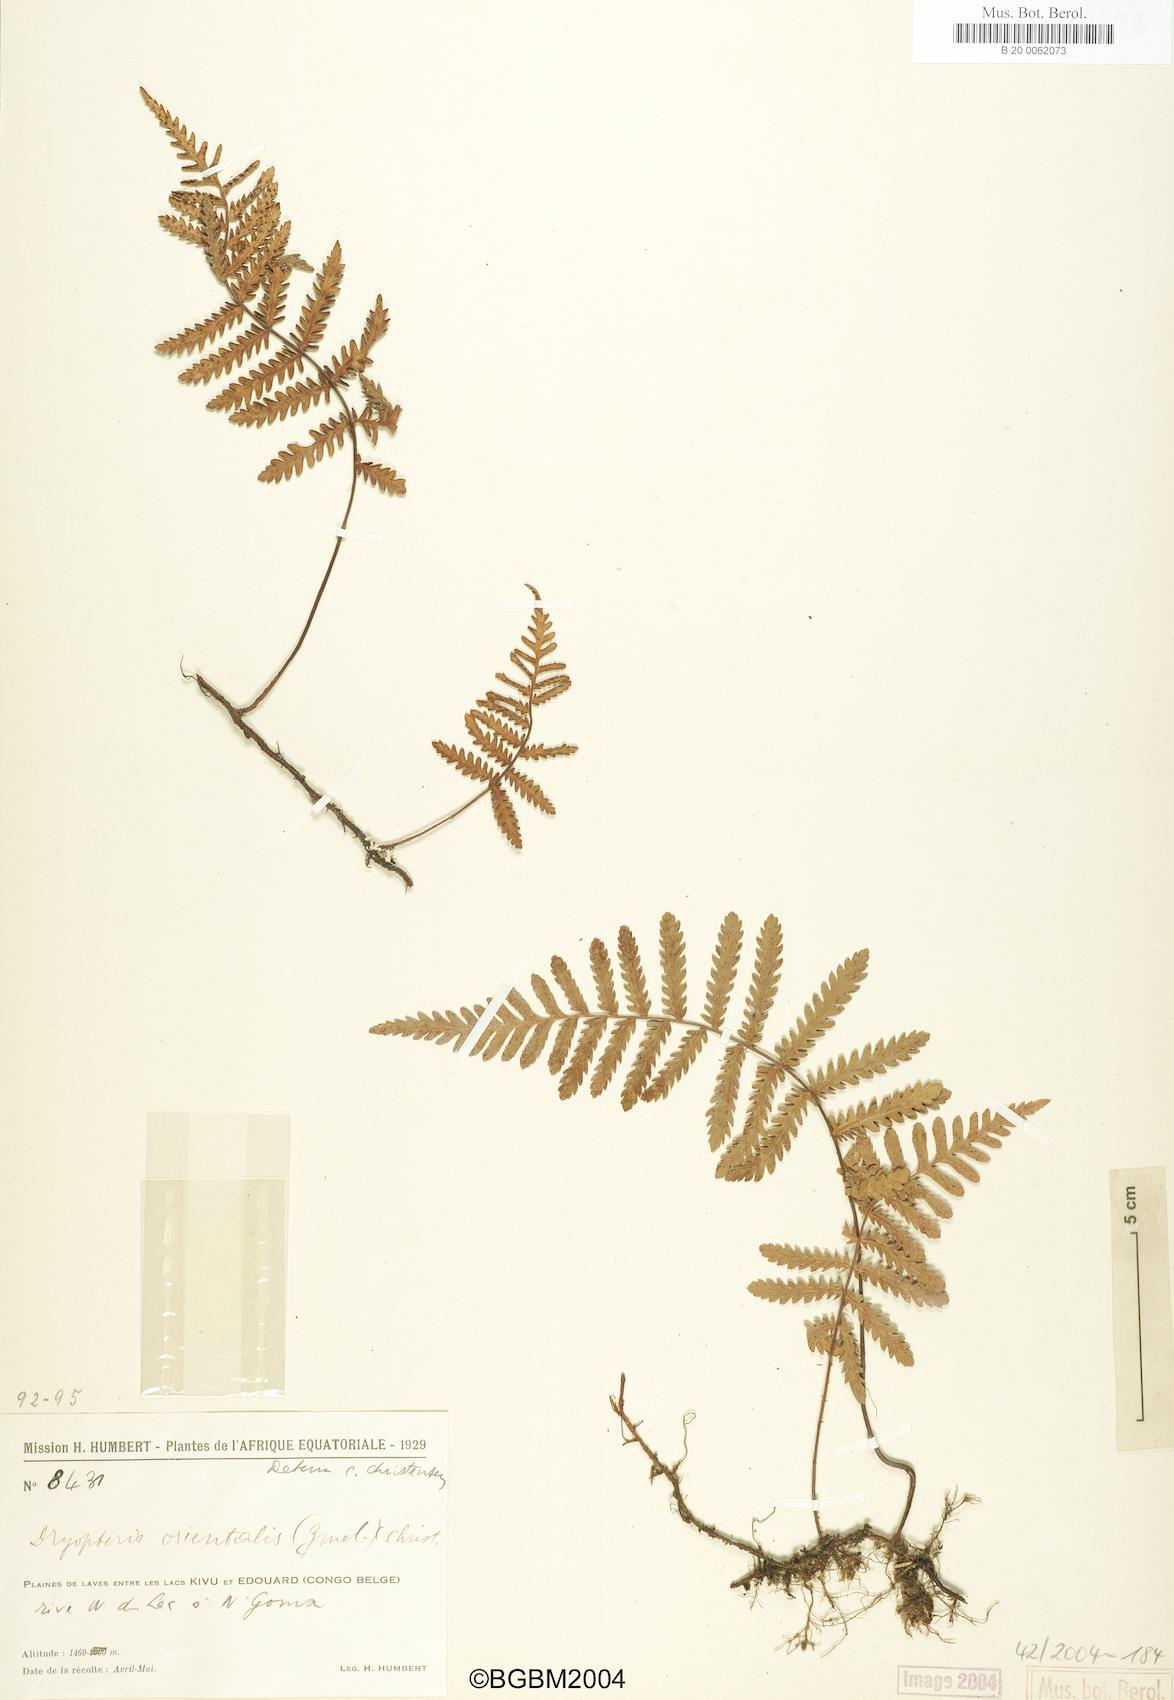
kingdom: Plantae
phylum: Tracheophyta
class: Polypodiopsida
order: Polypodiales
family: Tectariaceae
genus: Arthropteris
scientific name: Arthropteris orientalis
